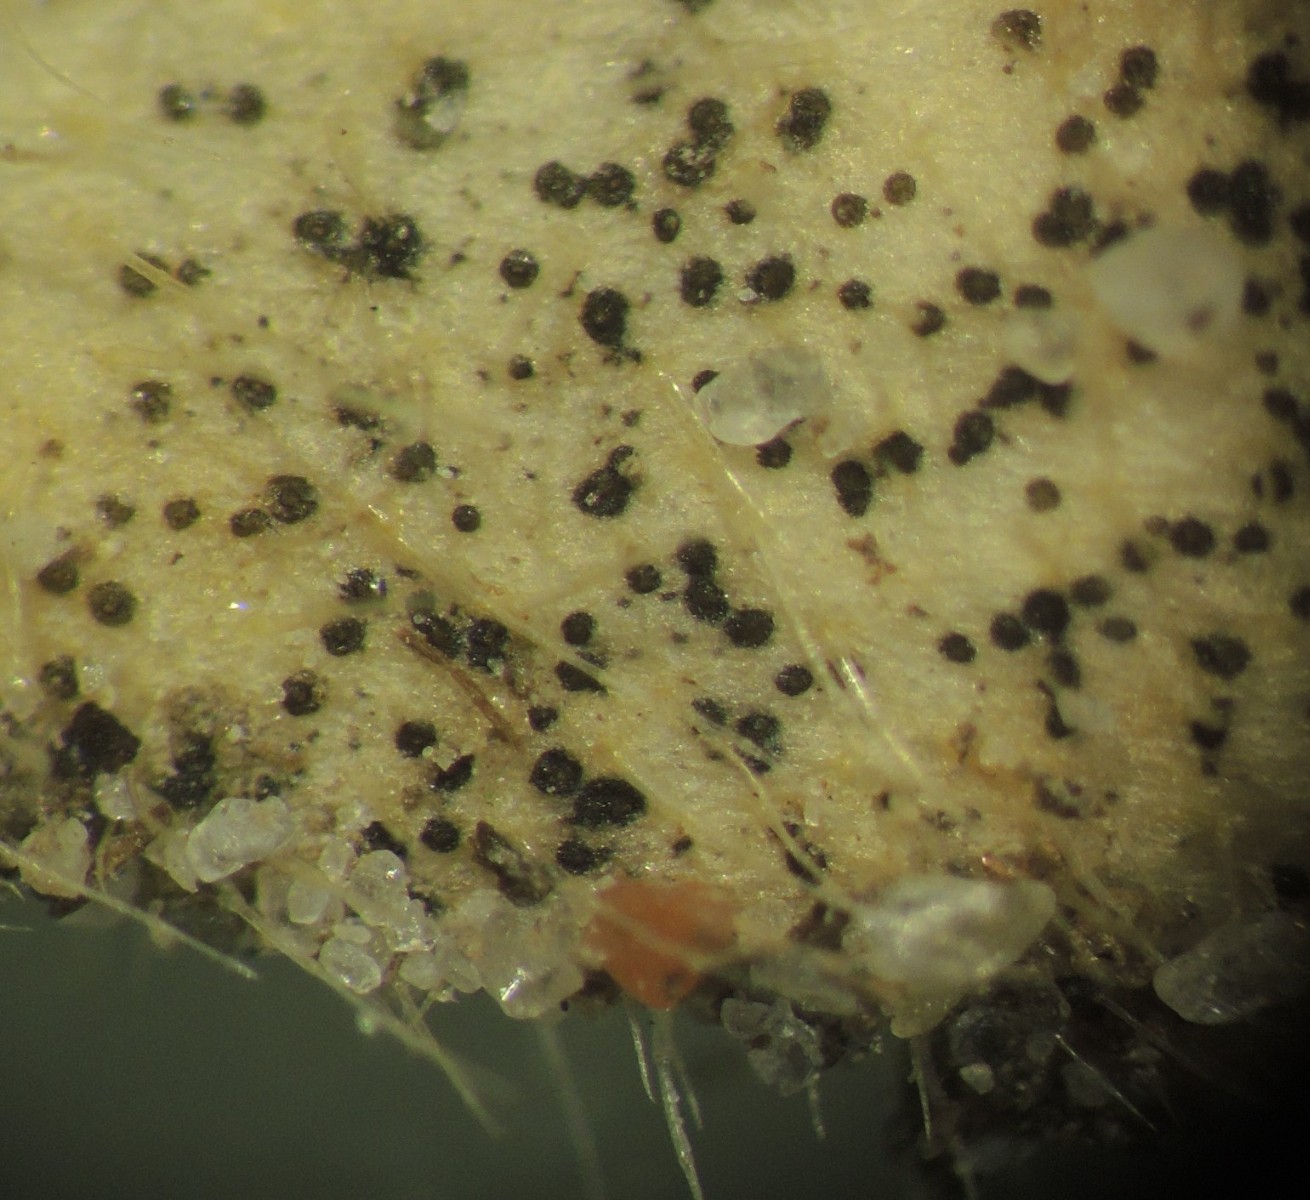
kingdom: Fungi
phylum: Ascomycota
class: Dothideomycetes
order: Mycosphaerellales
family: Mycosphaerellaceae
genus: Septoria
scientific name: Septoria stellariae
